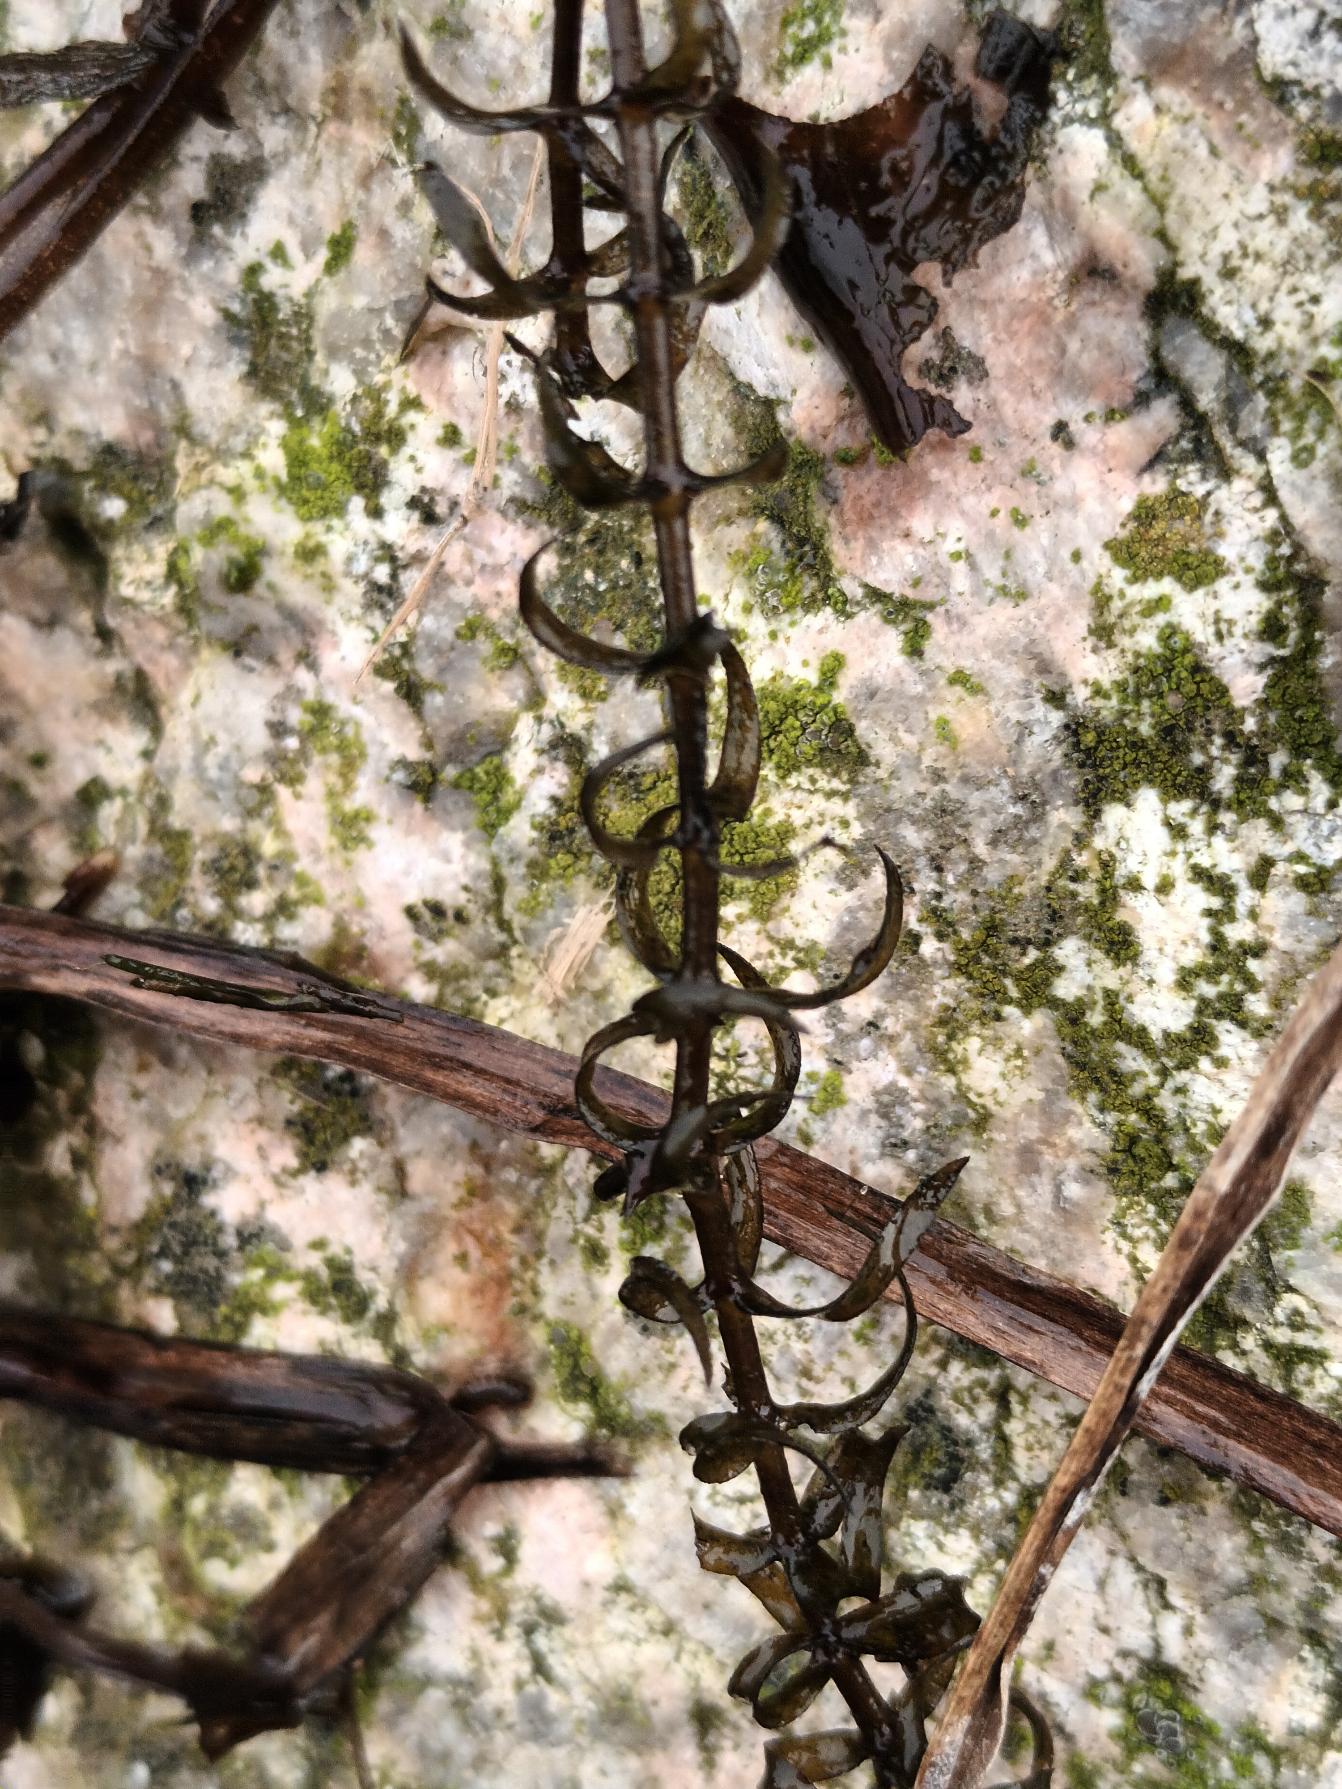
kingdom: Plantae
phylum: Tracheophyta
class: Liliopsida
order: Alismatales
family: Hydrocharitaceae
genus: Elodea
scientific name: Elodea nuttallii
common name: Smalbladet vandpest
